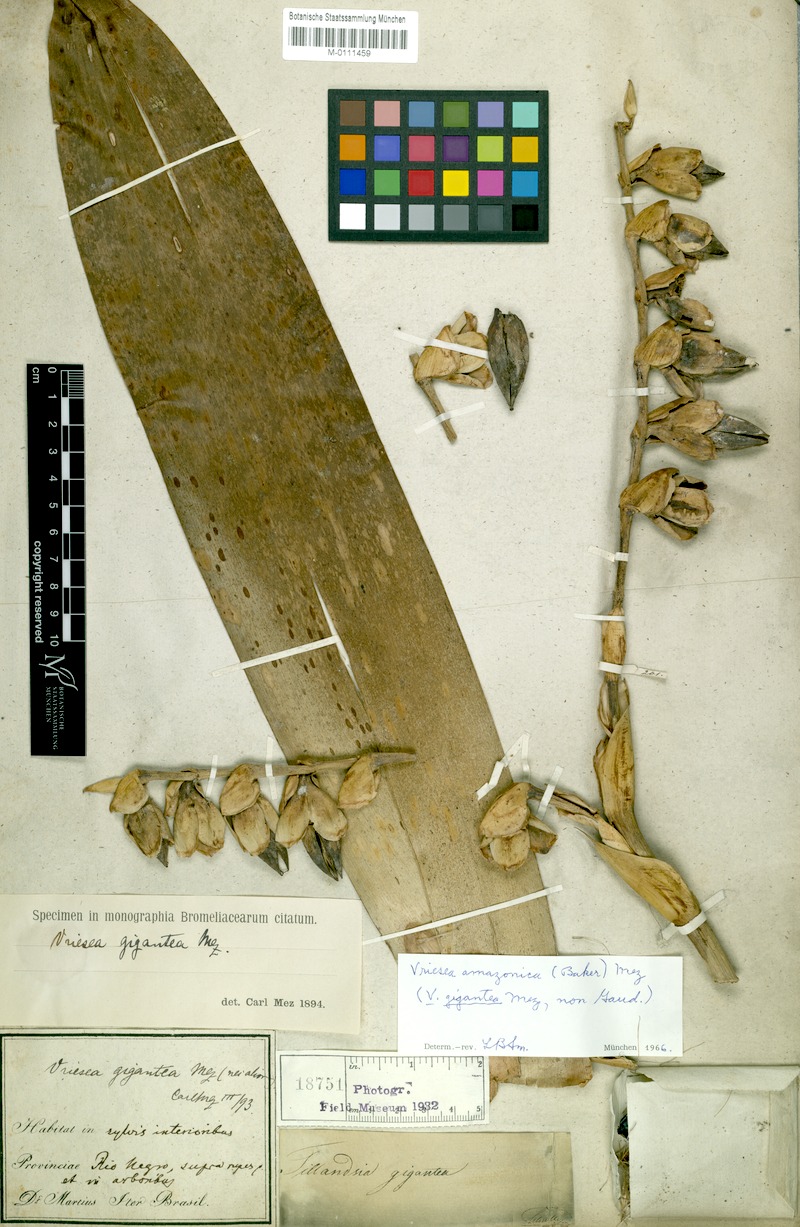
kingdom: Plantae
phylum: Tracheophyta
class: Liliopsida
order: Poales
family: Bromeliaceae
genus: Werauhia
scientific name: Werauhia gigantea
